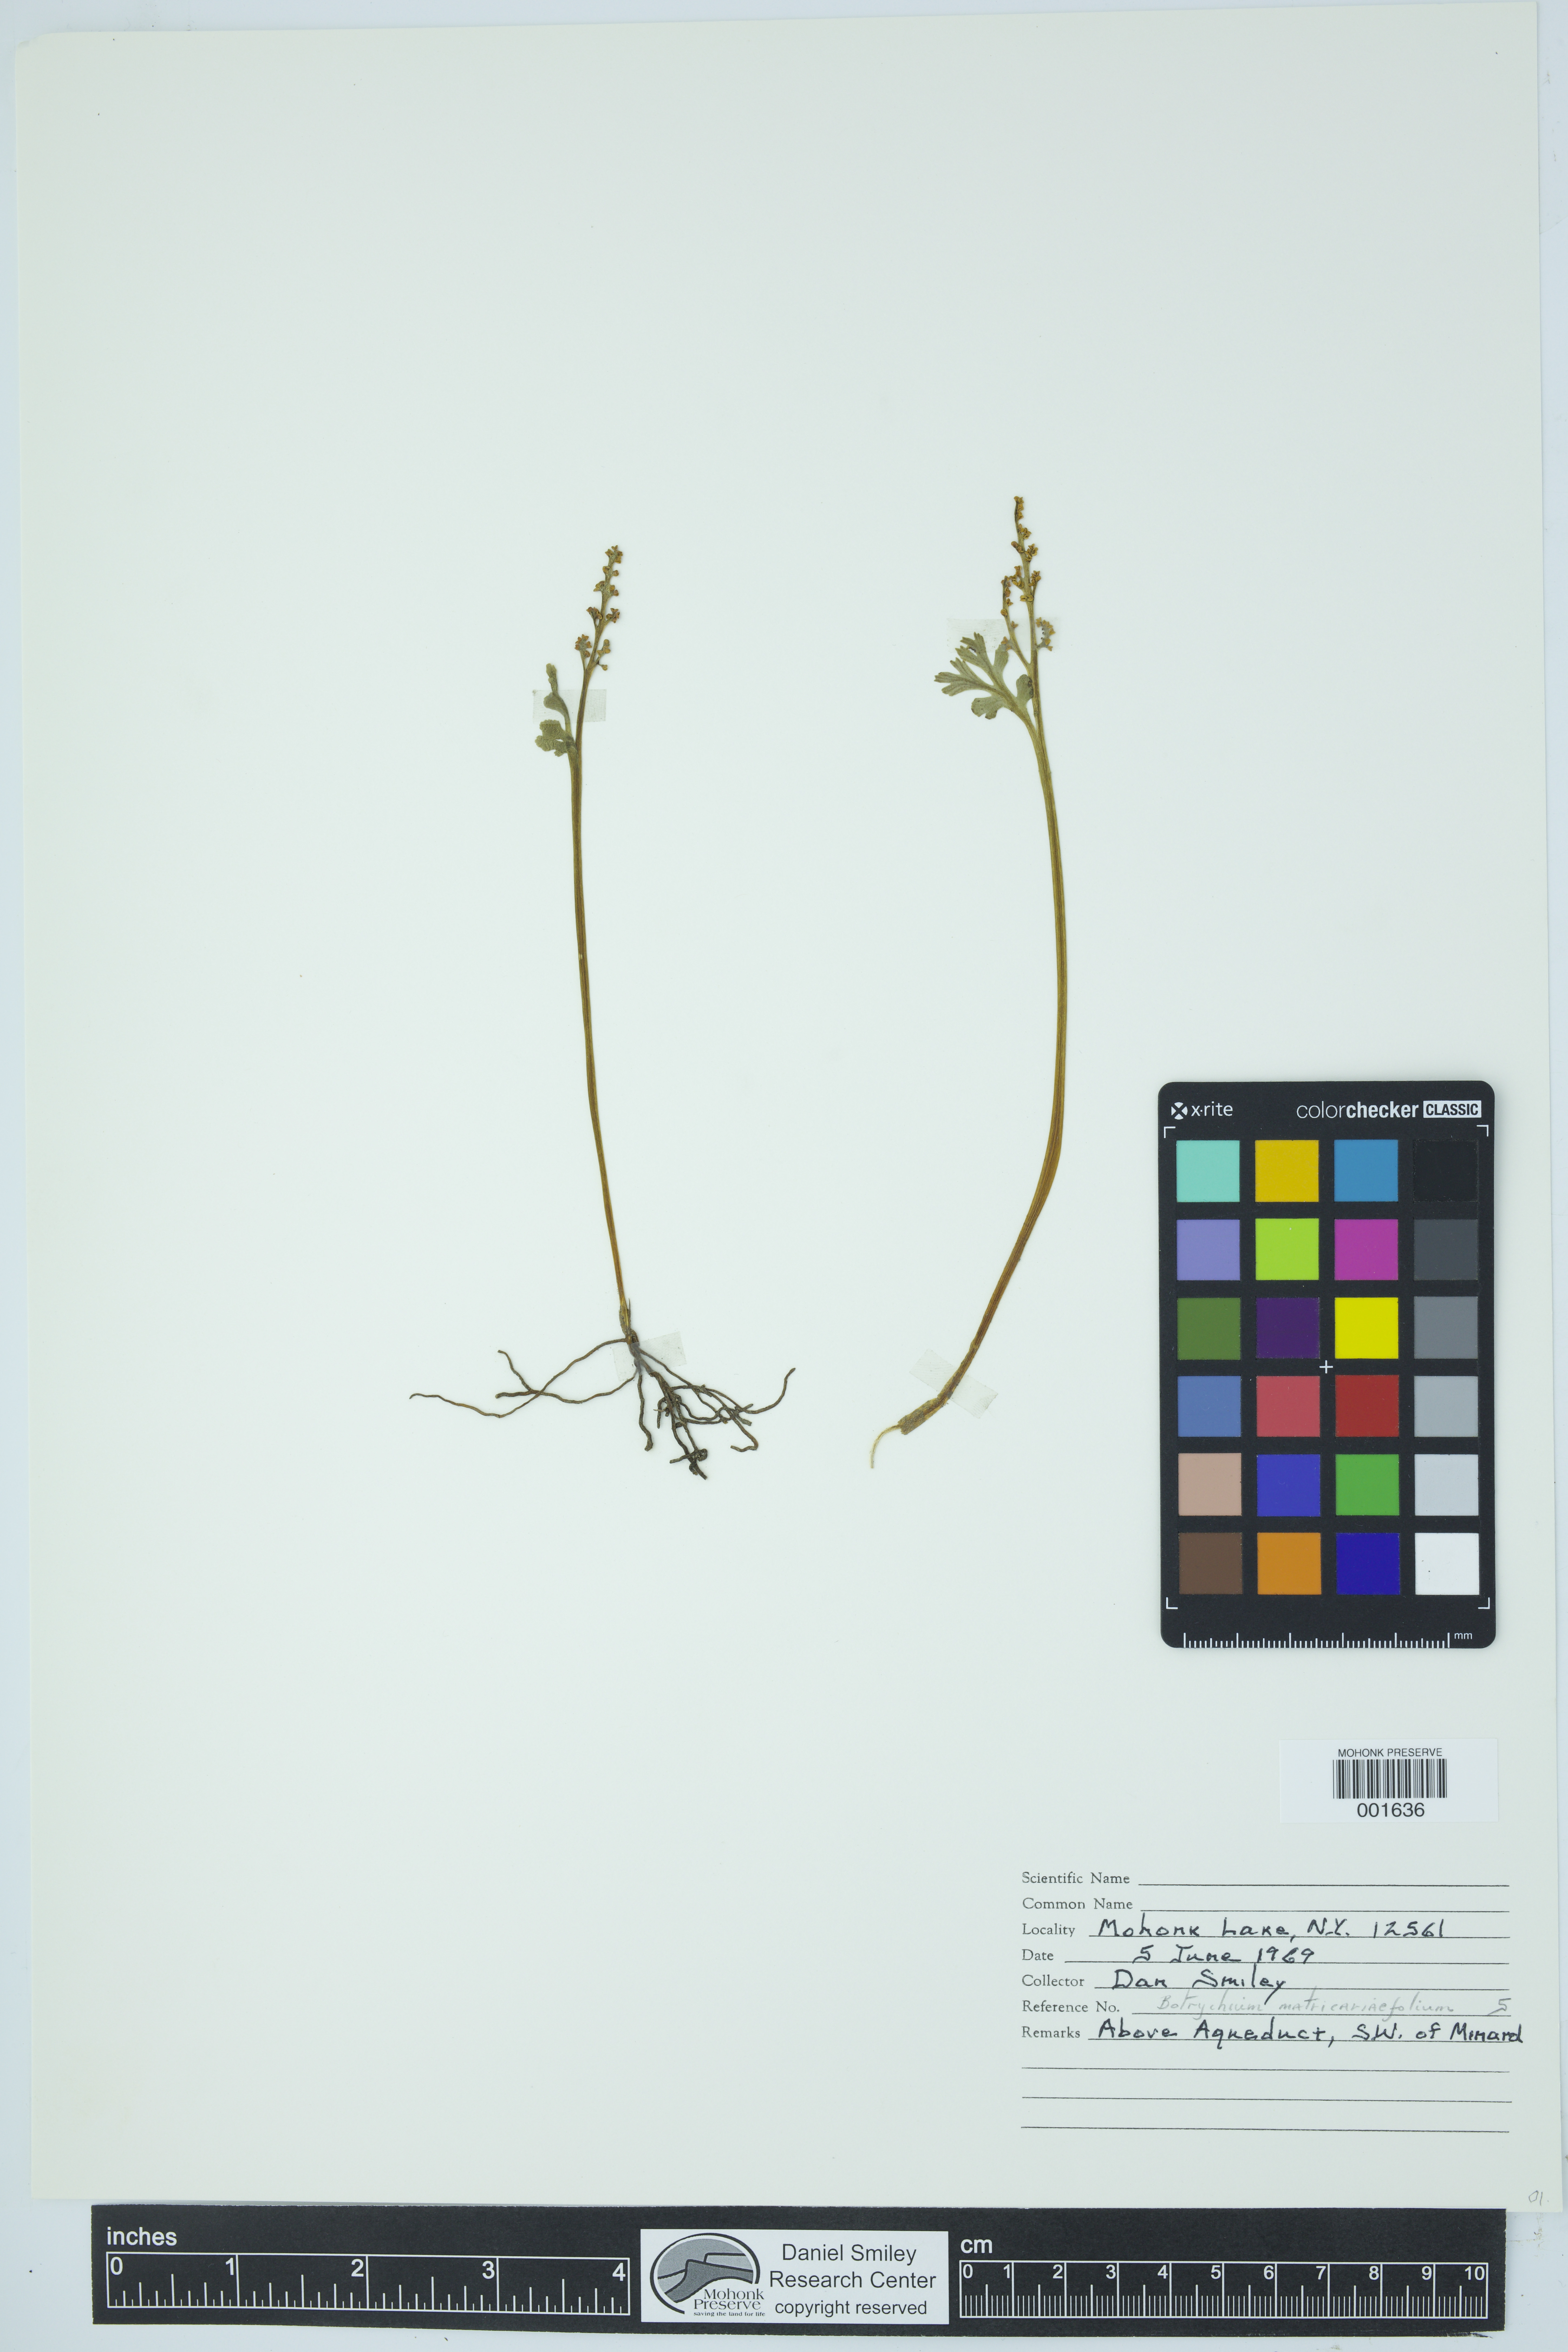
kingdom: Plantae
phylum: Tracheophyta
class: Polypodiopsida
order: Ophioglossales
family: Ophioglossaceae
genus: Botrychium
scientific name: Botrychium matricariifolium
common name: Branched moonwort
